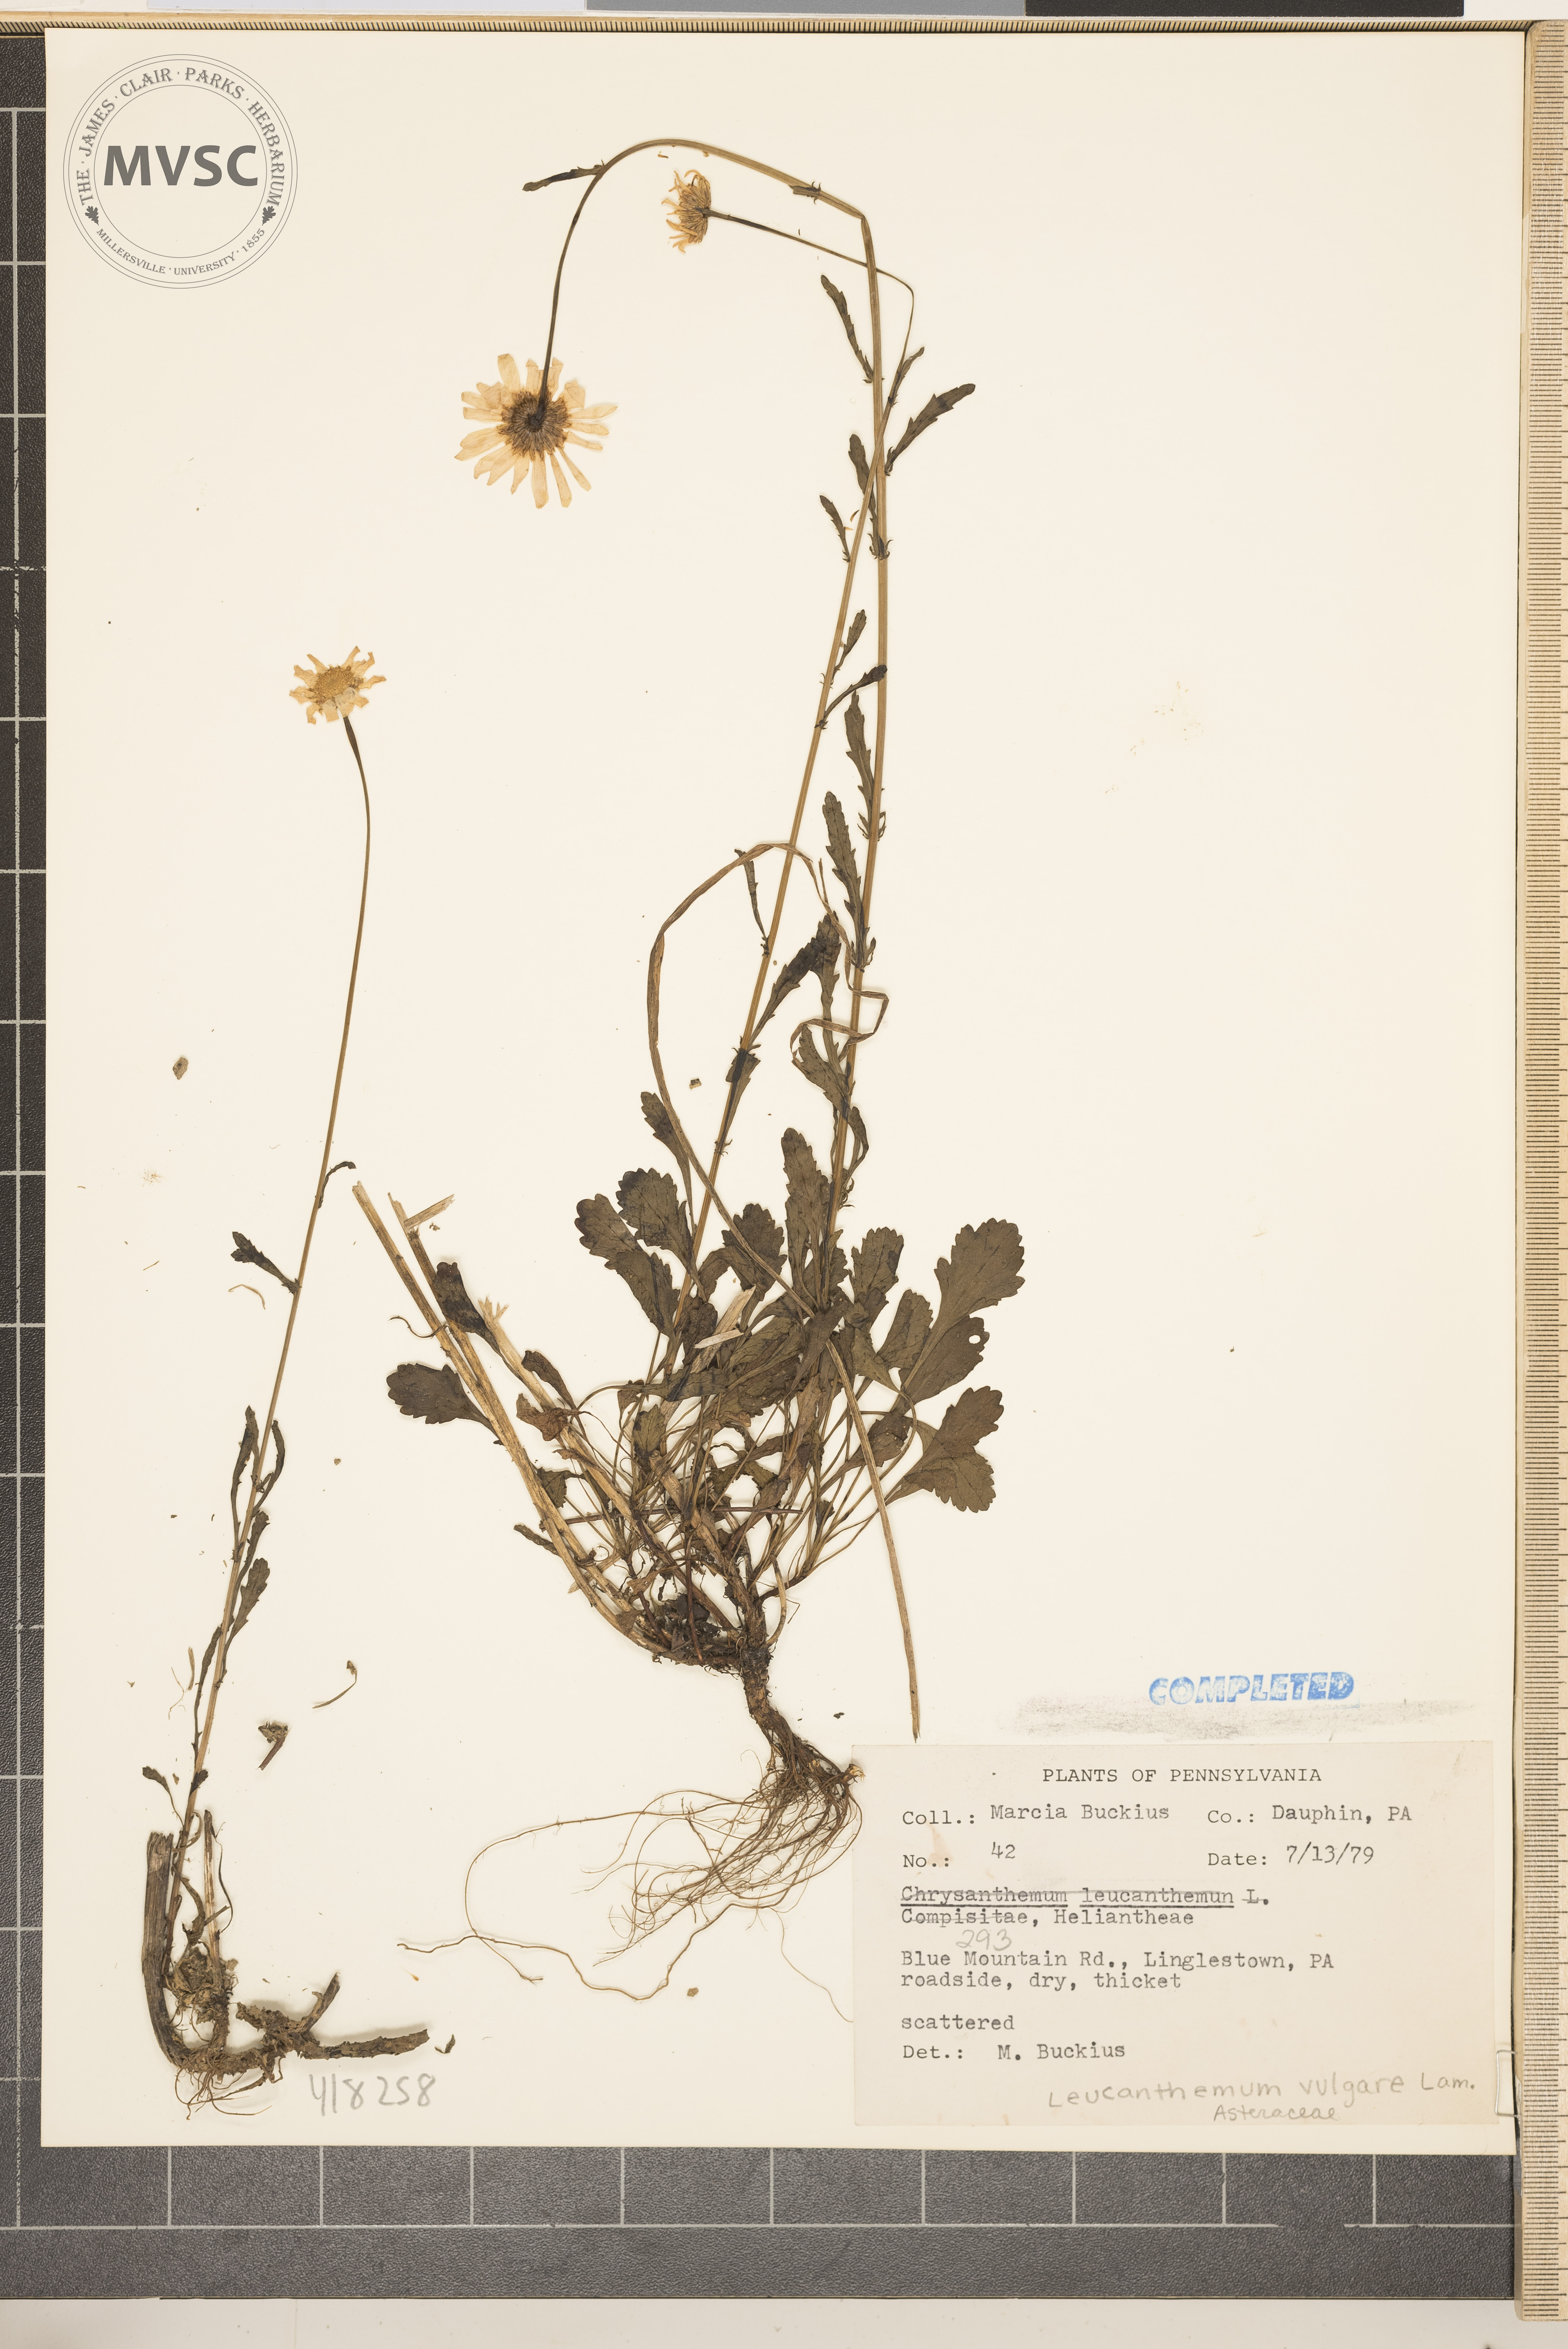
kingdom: Plantae
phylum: Tracheophyta
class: Magnoliopsida
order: Asterales
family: Asteraceae
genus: Leucanthemum
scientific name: Leucanthemum vulgare
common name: ox-eye daisy
